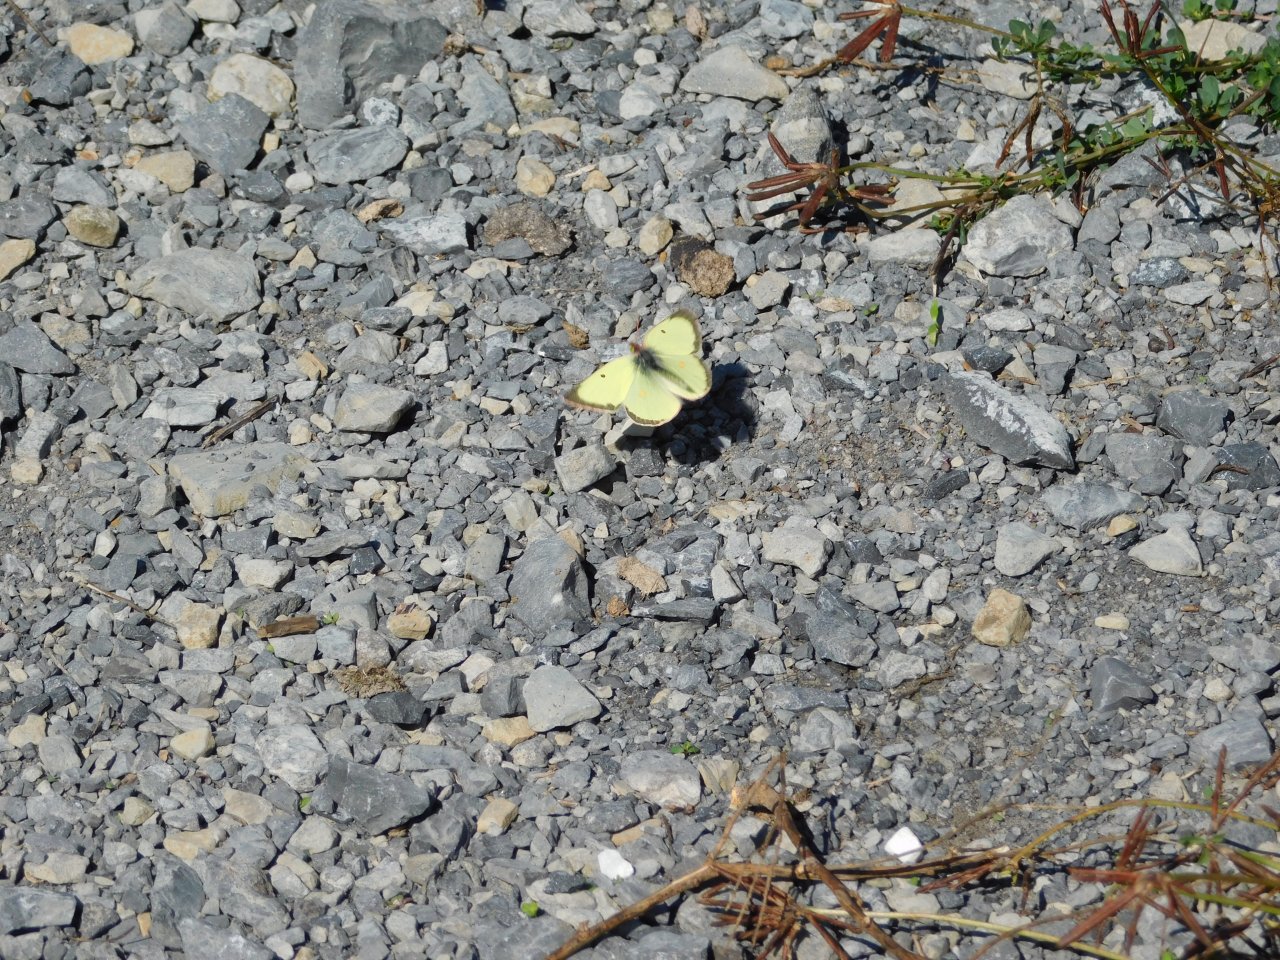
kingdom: Animalia
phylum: Arthropoda
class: Insecta
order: Lepidoptera
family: Pieridae
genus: Colias
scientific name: Colias philodice
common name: Clouded Sulphur
